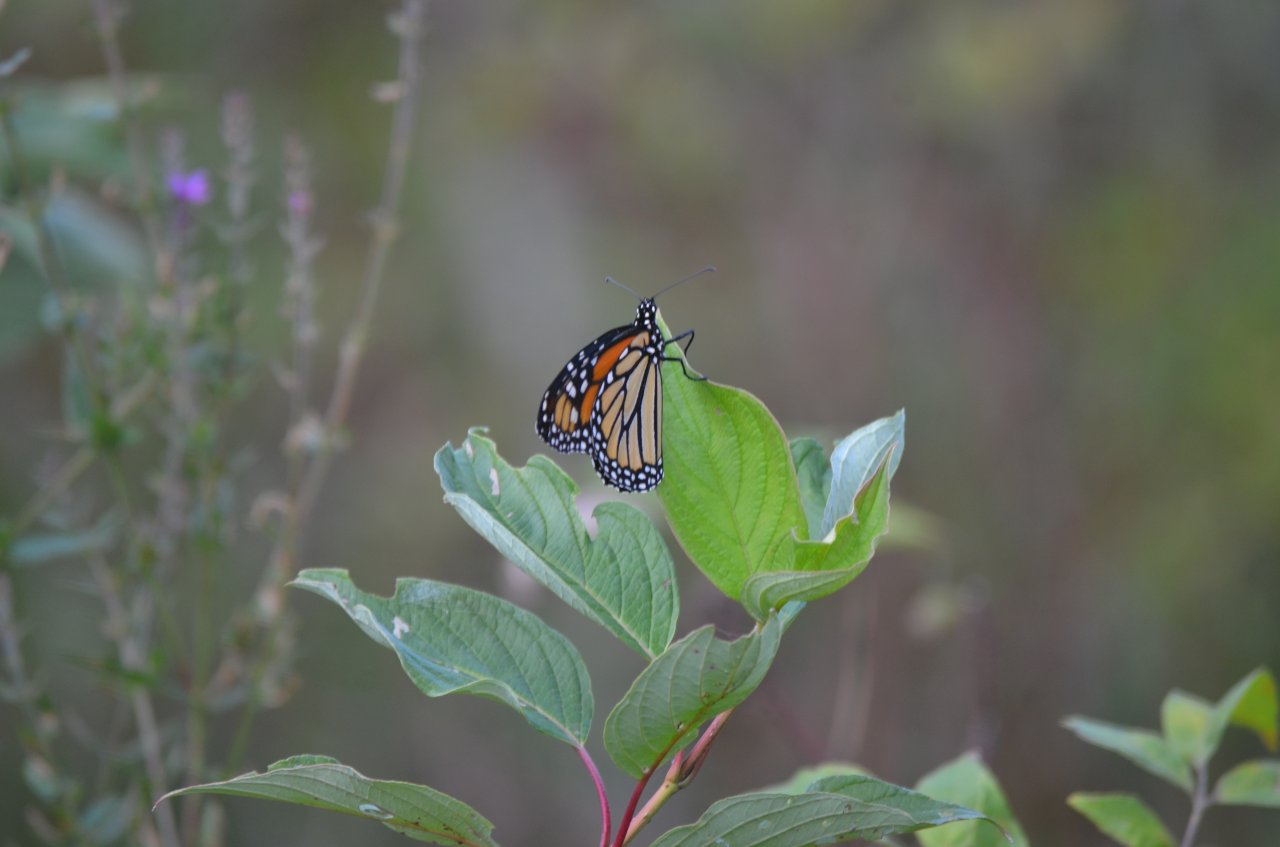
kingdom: Animalia
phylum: Arthropoda
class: Insecta
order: Lepidoptera
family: Nymphalidae
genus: Danaus
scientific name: Danaus plexippus
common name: Monarch
